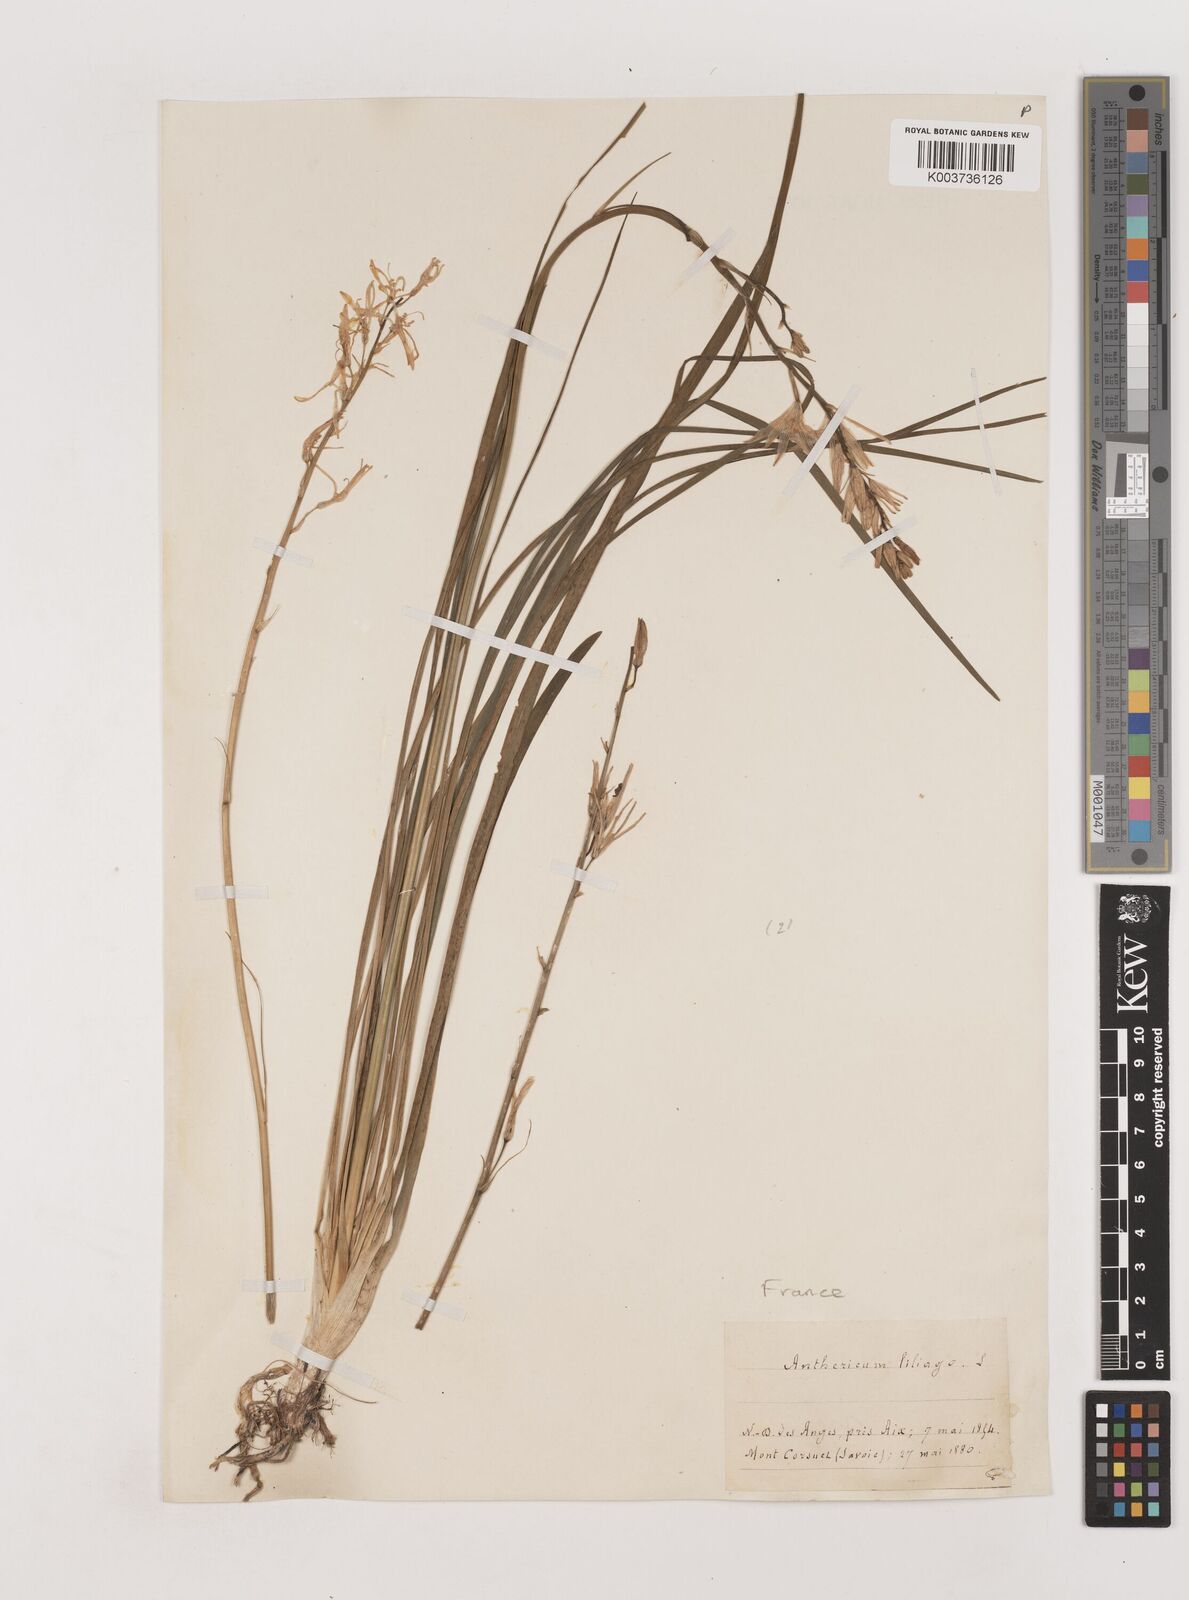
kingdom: Plantae
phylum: Tracheophyta
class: Liliopsida
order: Asparagales
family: Asparagaceae
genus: Anthericum
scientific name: Anthericum liliago
